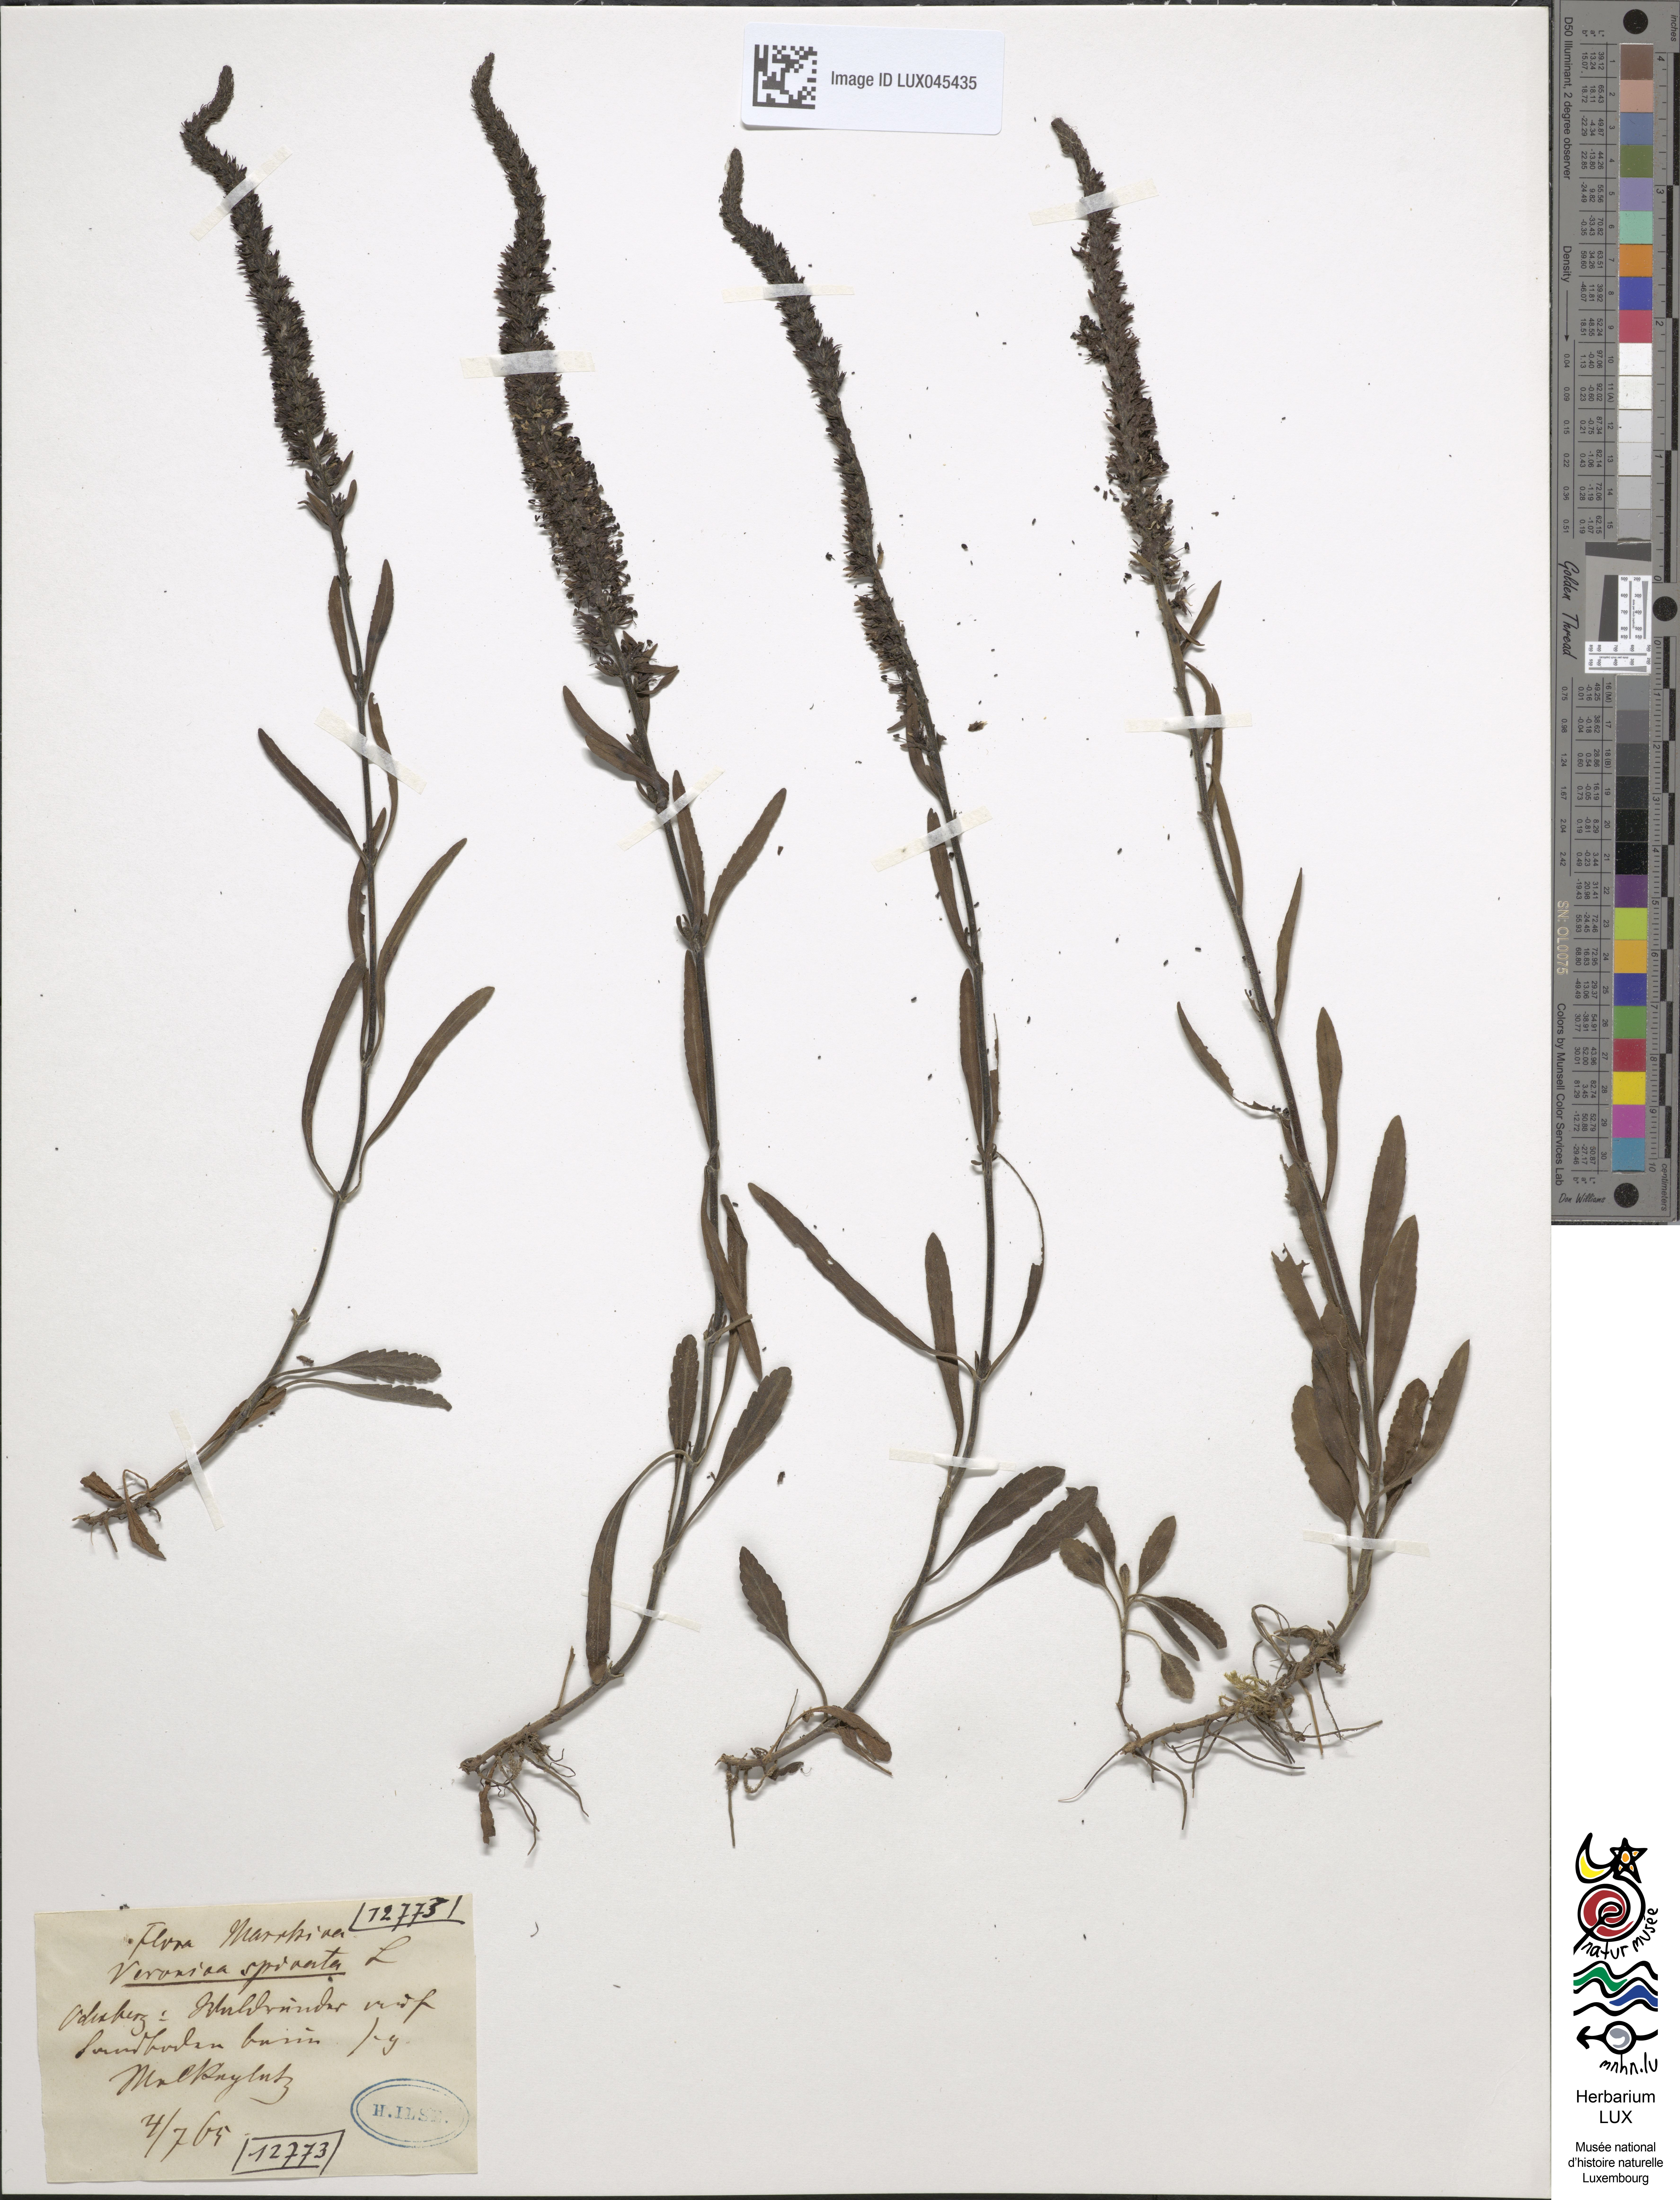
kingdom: Plantae
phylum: Tracheophyta
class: Magnoliopsida
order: Lamiales
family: Plantaginaceae
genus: Veronica
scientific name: Veronica spicata
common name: Spiked speedwell
